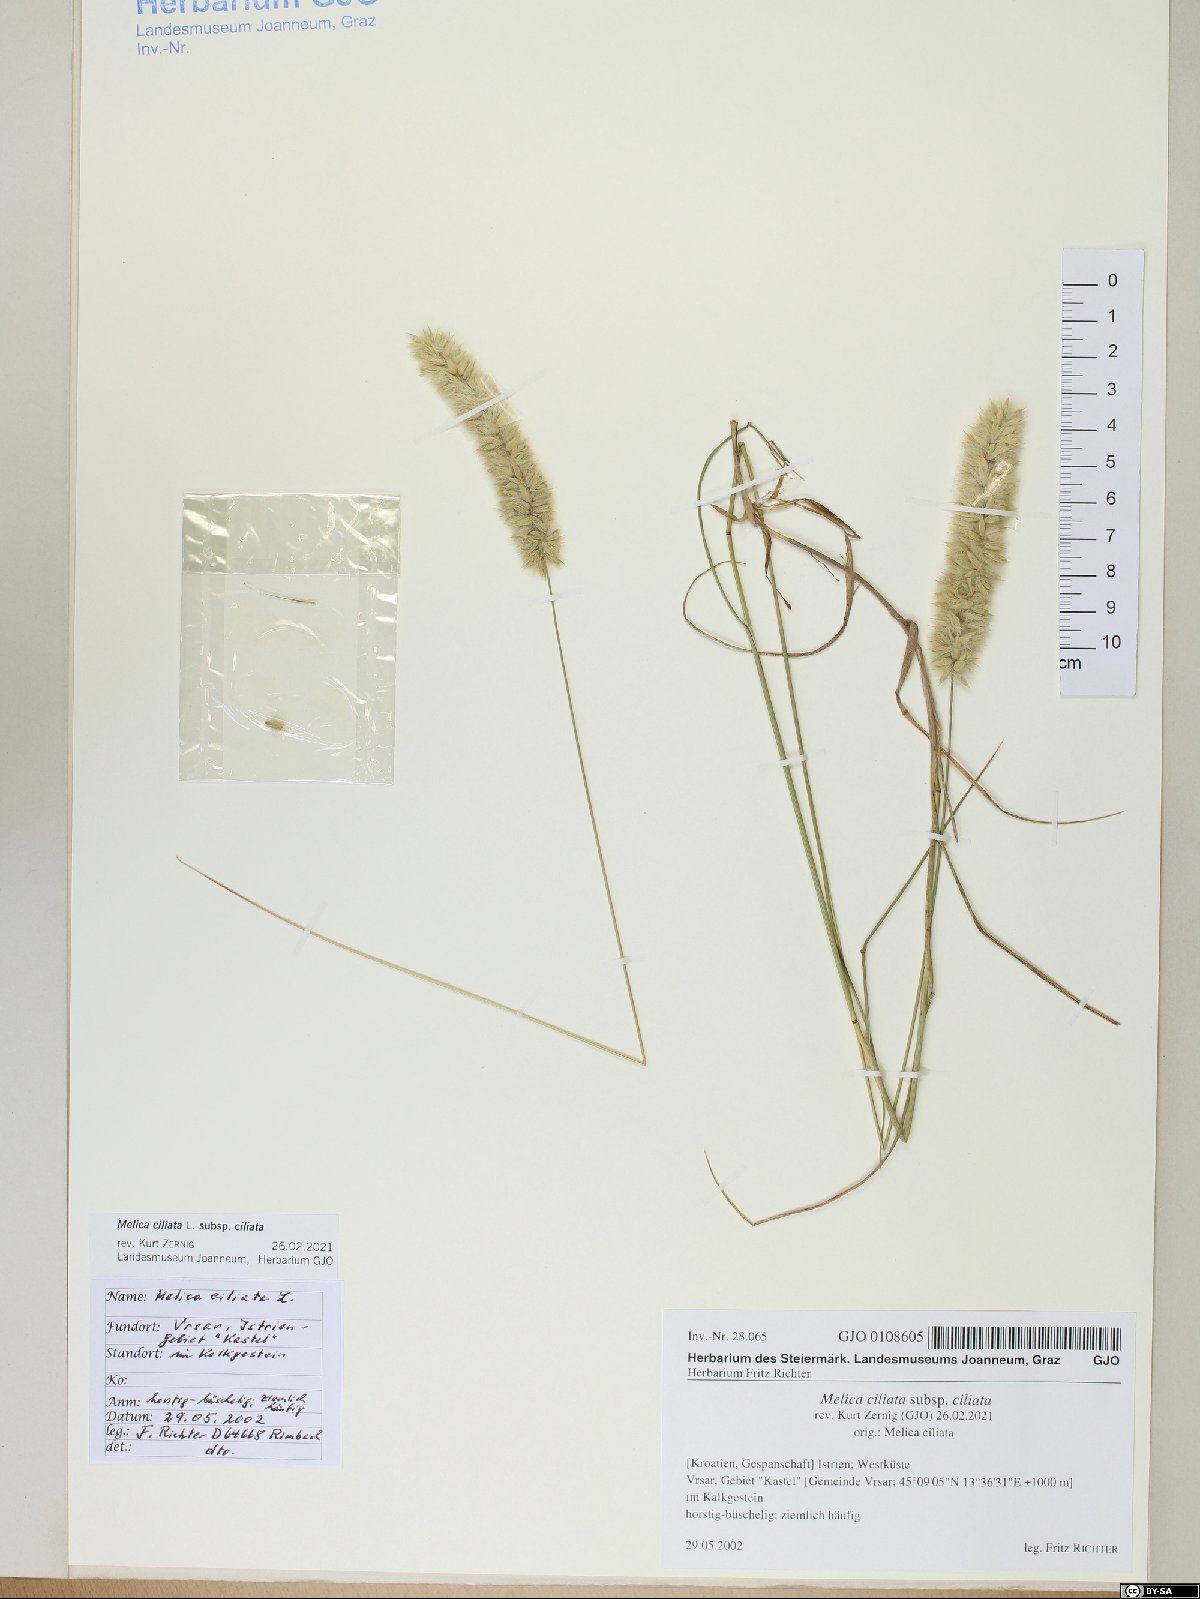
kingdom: Plantae
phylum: Tracheophyta
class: Liliopsida
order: Poales
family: Poaceae
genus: Melica
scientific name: Melica ciliata
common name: Hairy melicgrass
